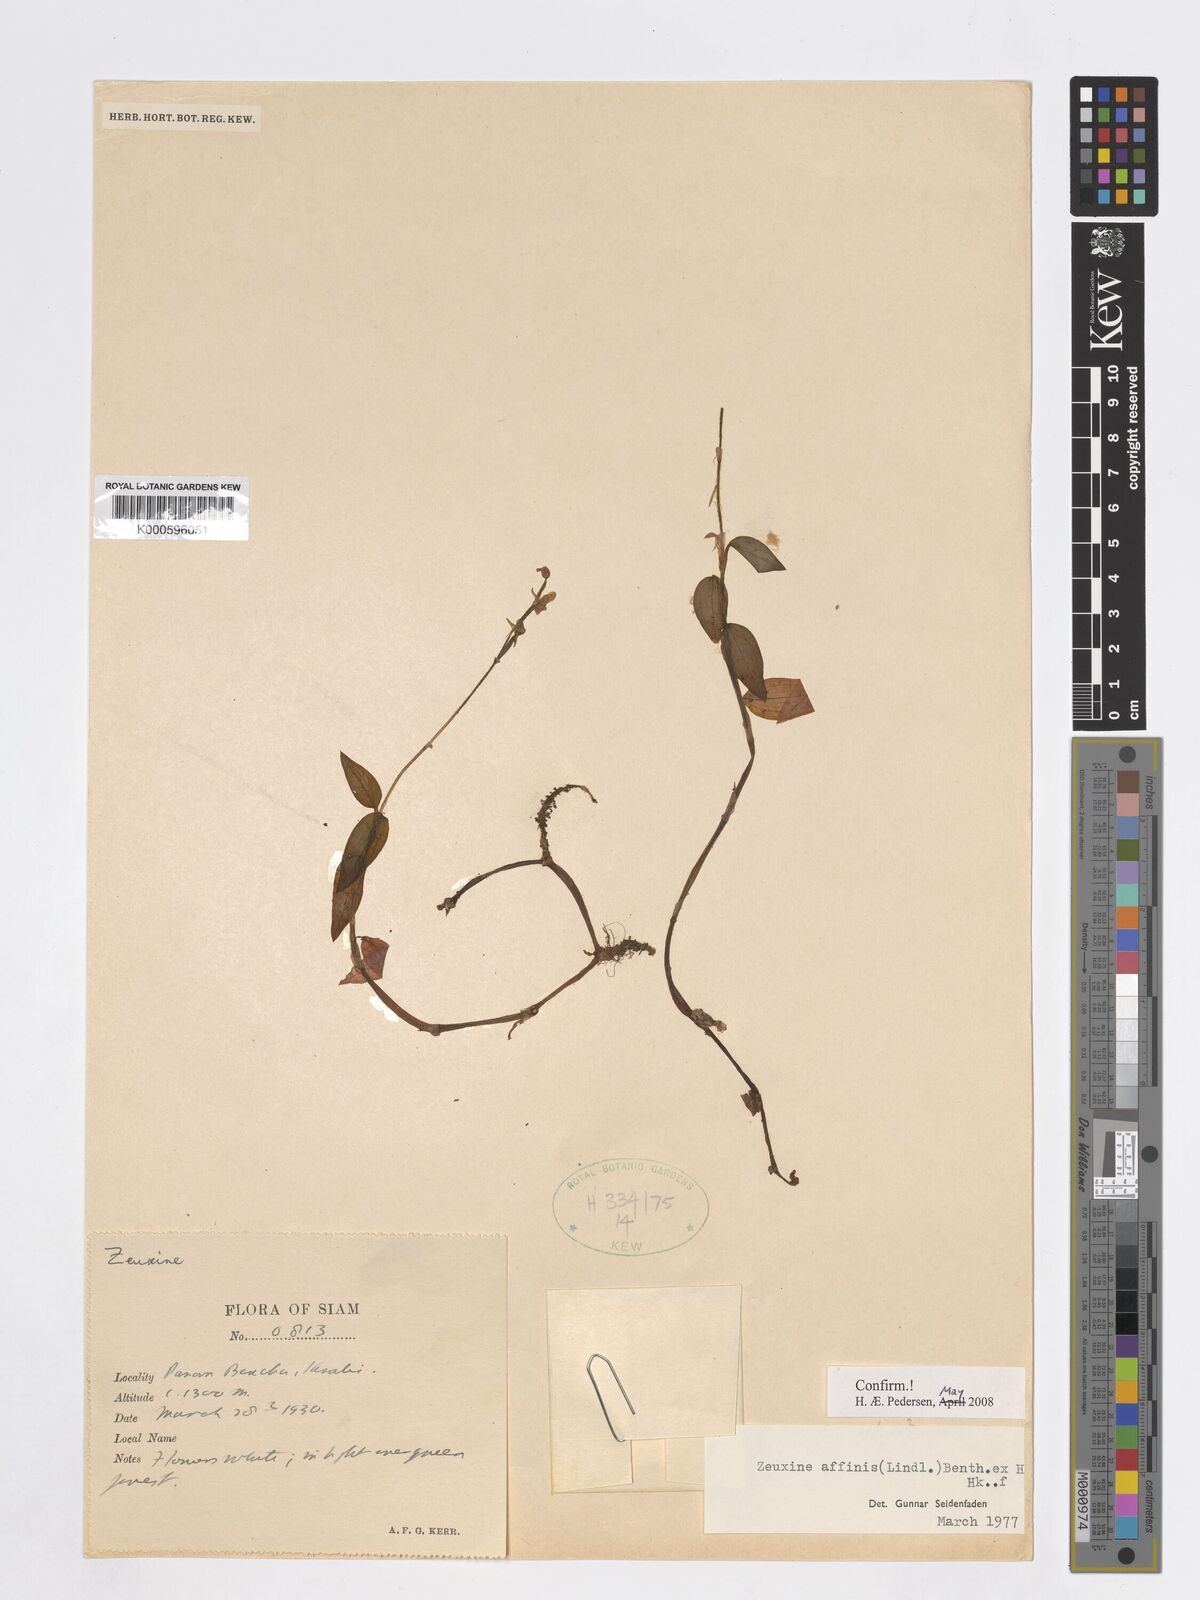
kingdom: Plantae
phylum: Tracheophyta
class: Liliopsida
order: Asparagales
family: Orchidaceae
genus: Zeuxine
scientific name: Zeuxine affinis
